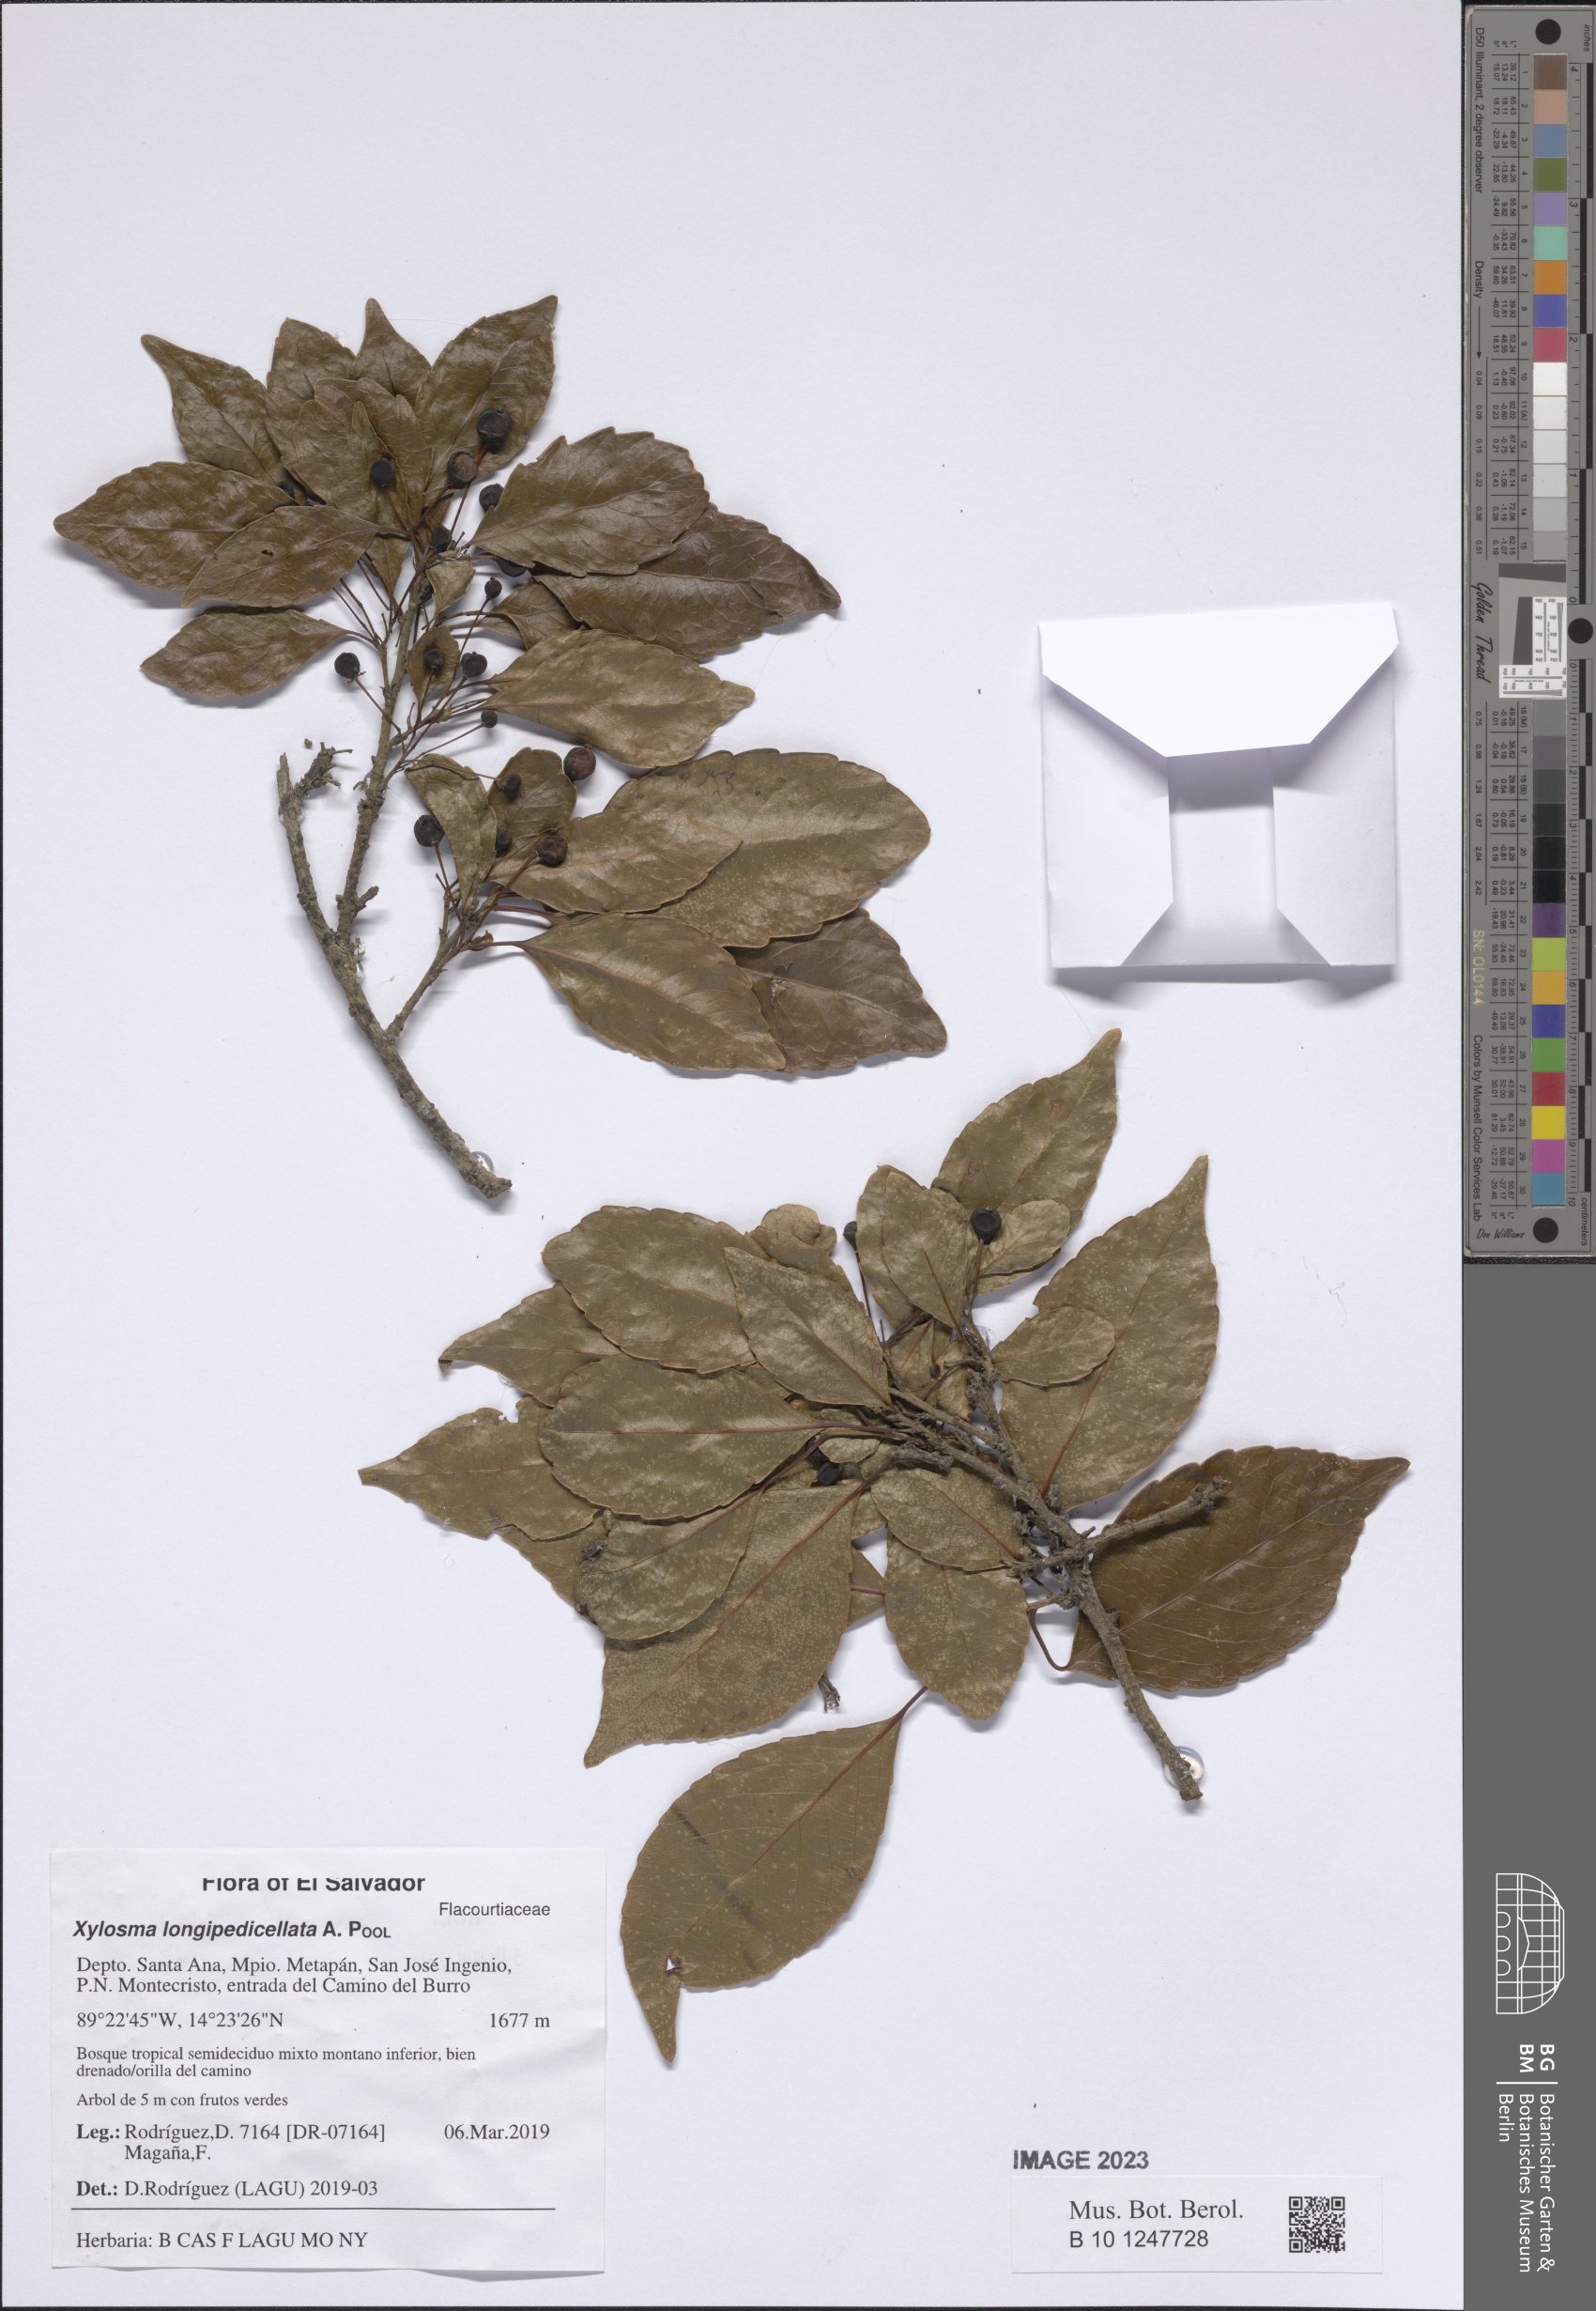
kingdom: Plantae
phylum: Tracheophyta
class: Magnoliopsida
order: Malpighiales
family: Salicaceae
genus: Xylosma
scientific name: Xylosma longipedicellata
